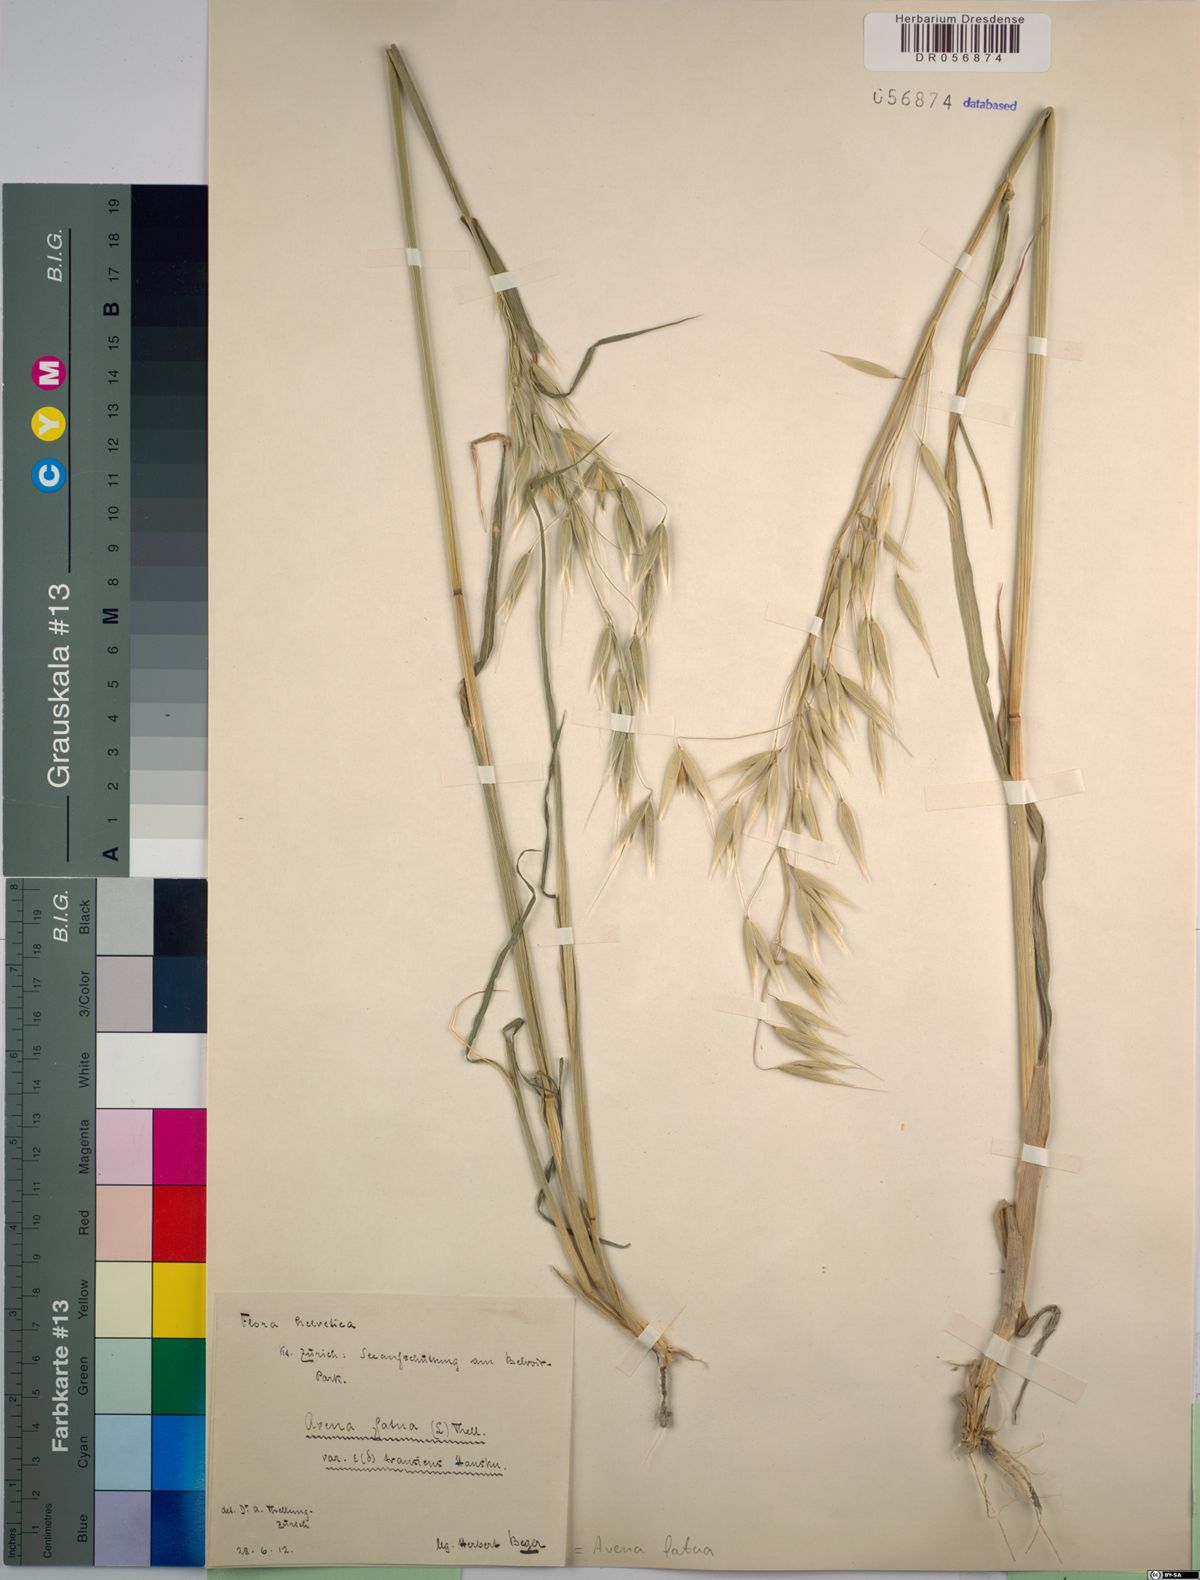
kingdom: Plantae
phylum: Tracheophyta
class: Liliopsida
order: Poales
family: Poaceae
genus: Avena
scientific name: Avena fatua
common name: Wild oat
